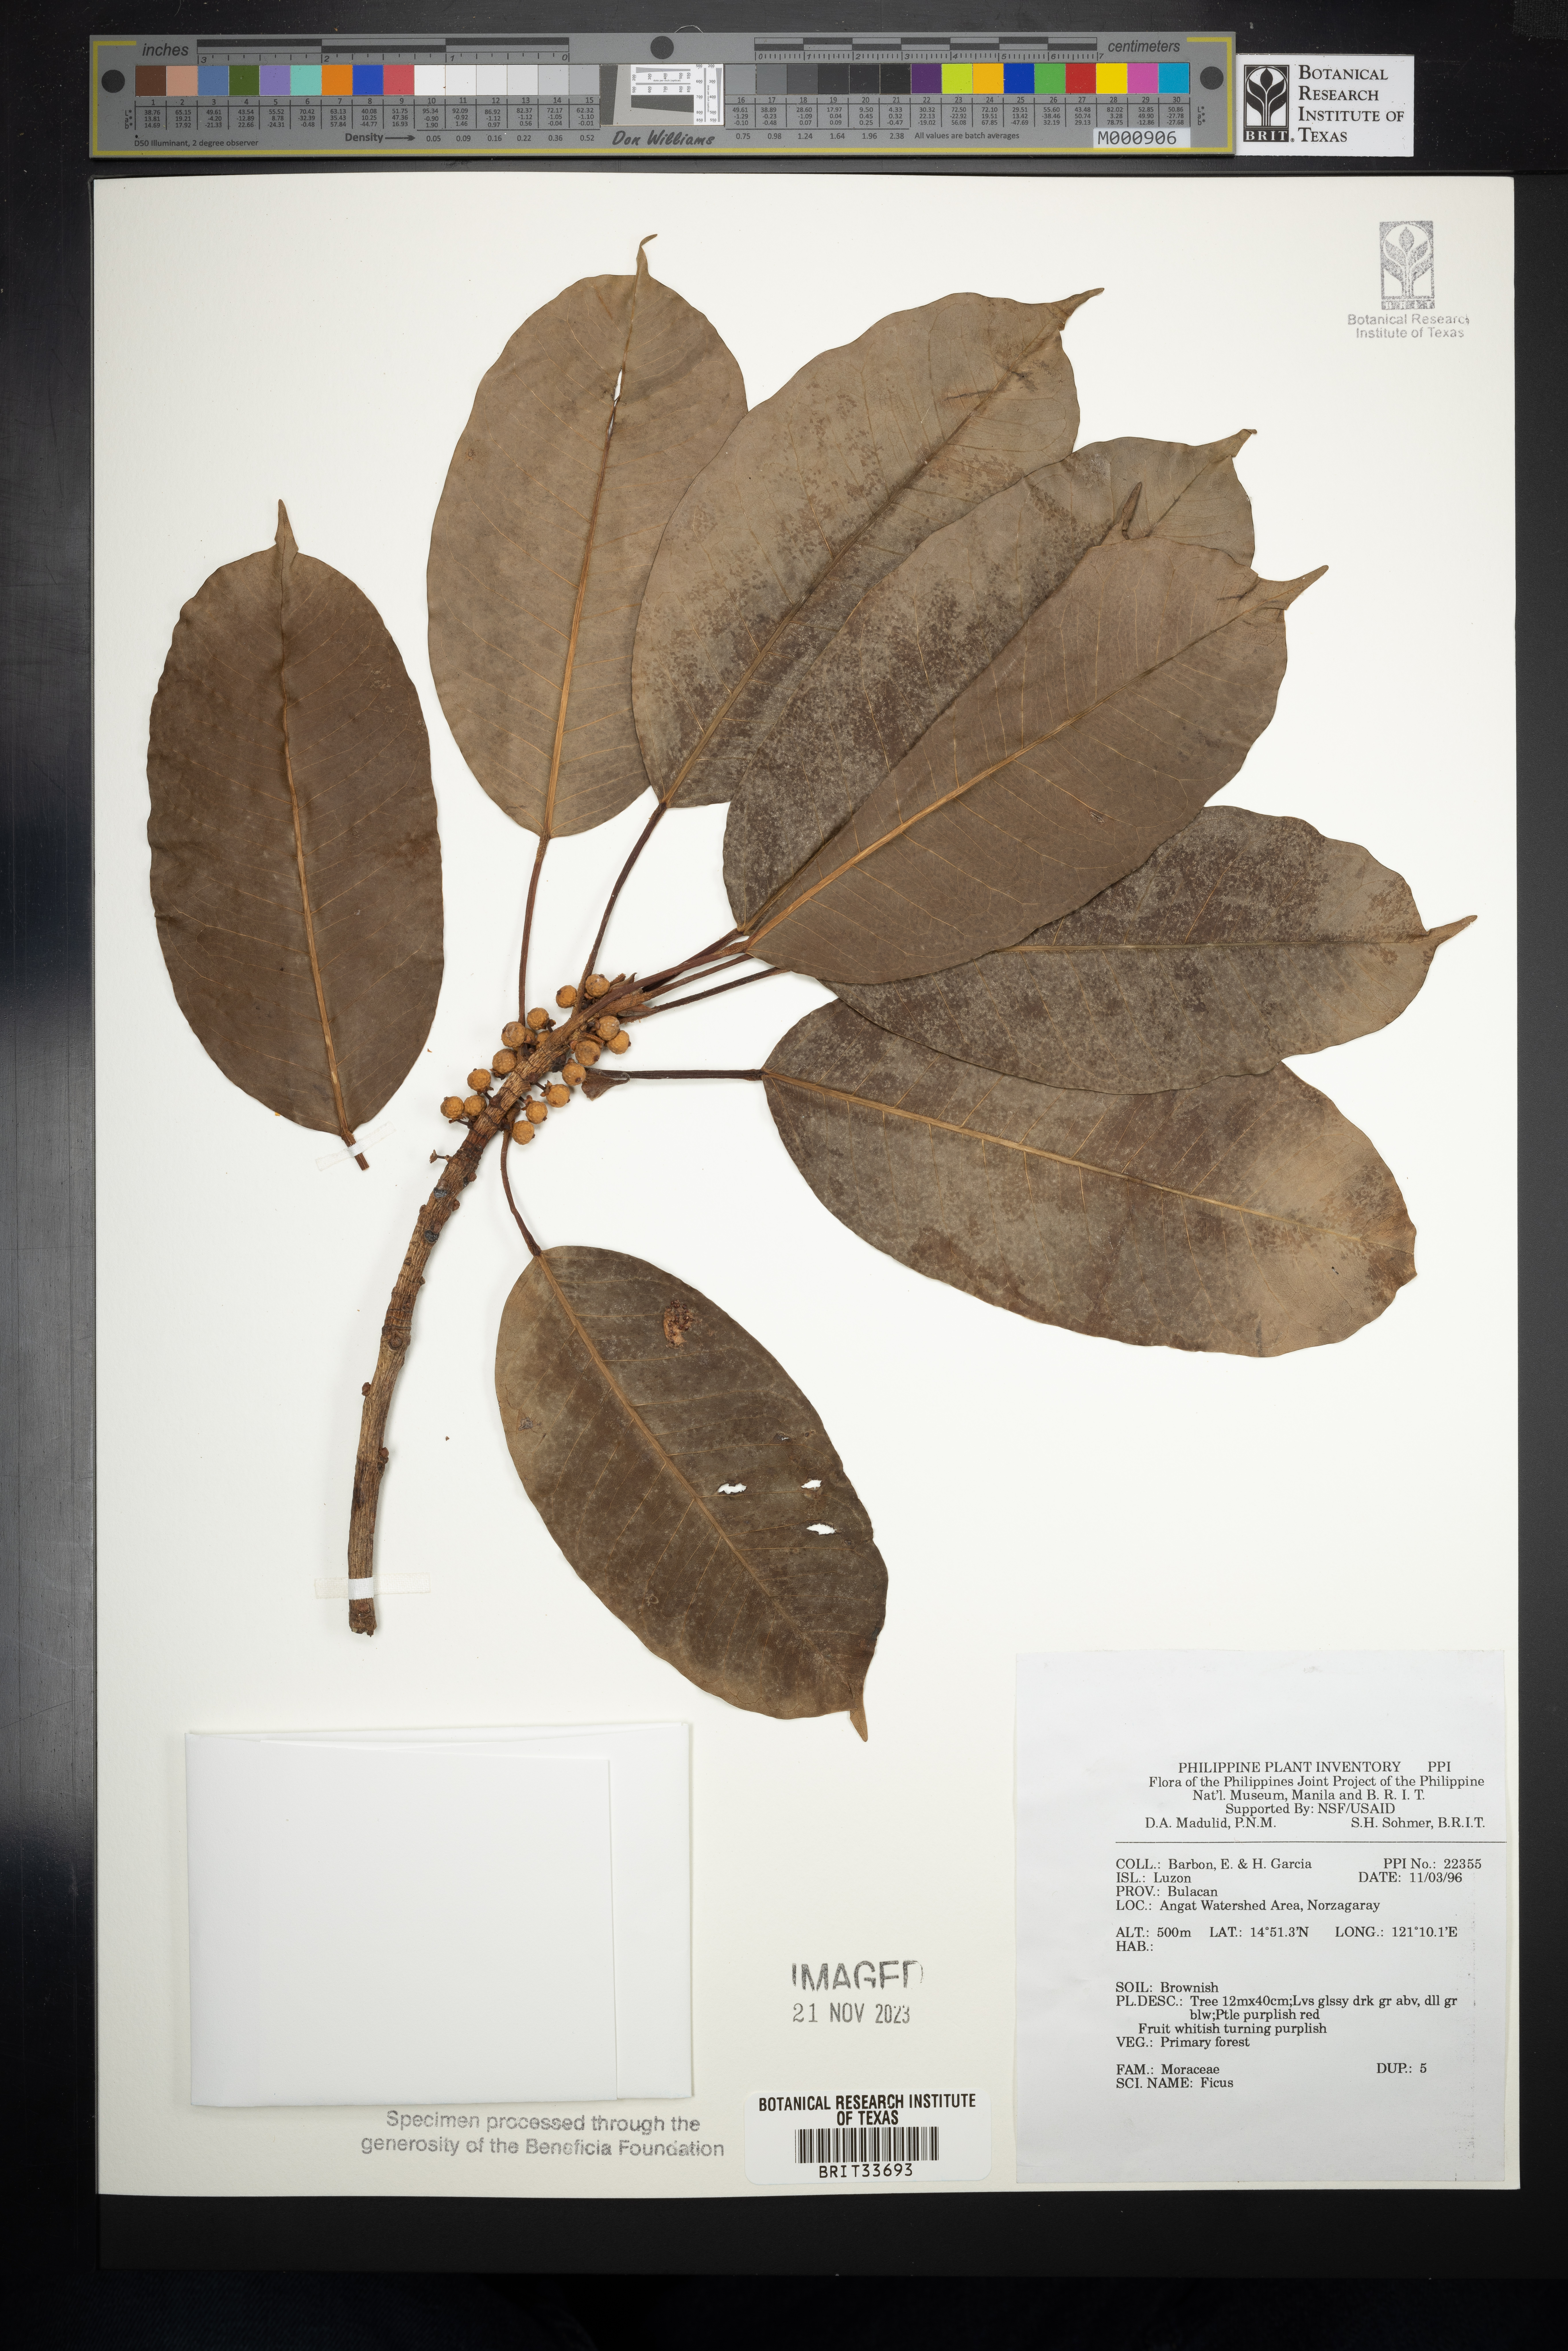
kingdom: Plantae
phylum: Tracheophyta
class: Magnoliopsida
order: Rosales
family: Moraceae
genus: Ficus
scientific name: Ficus
